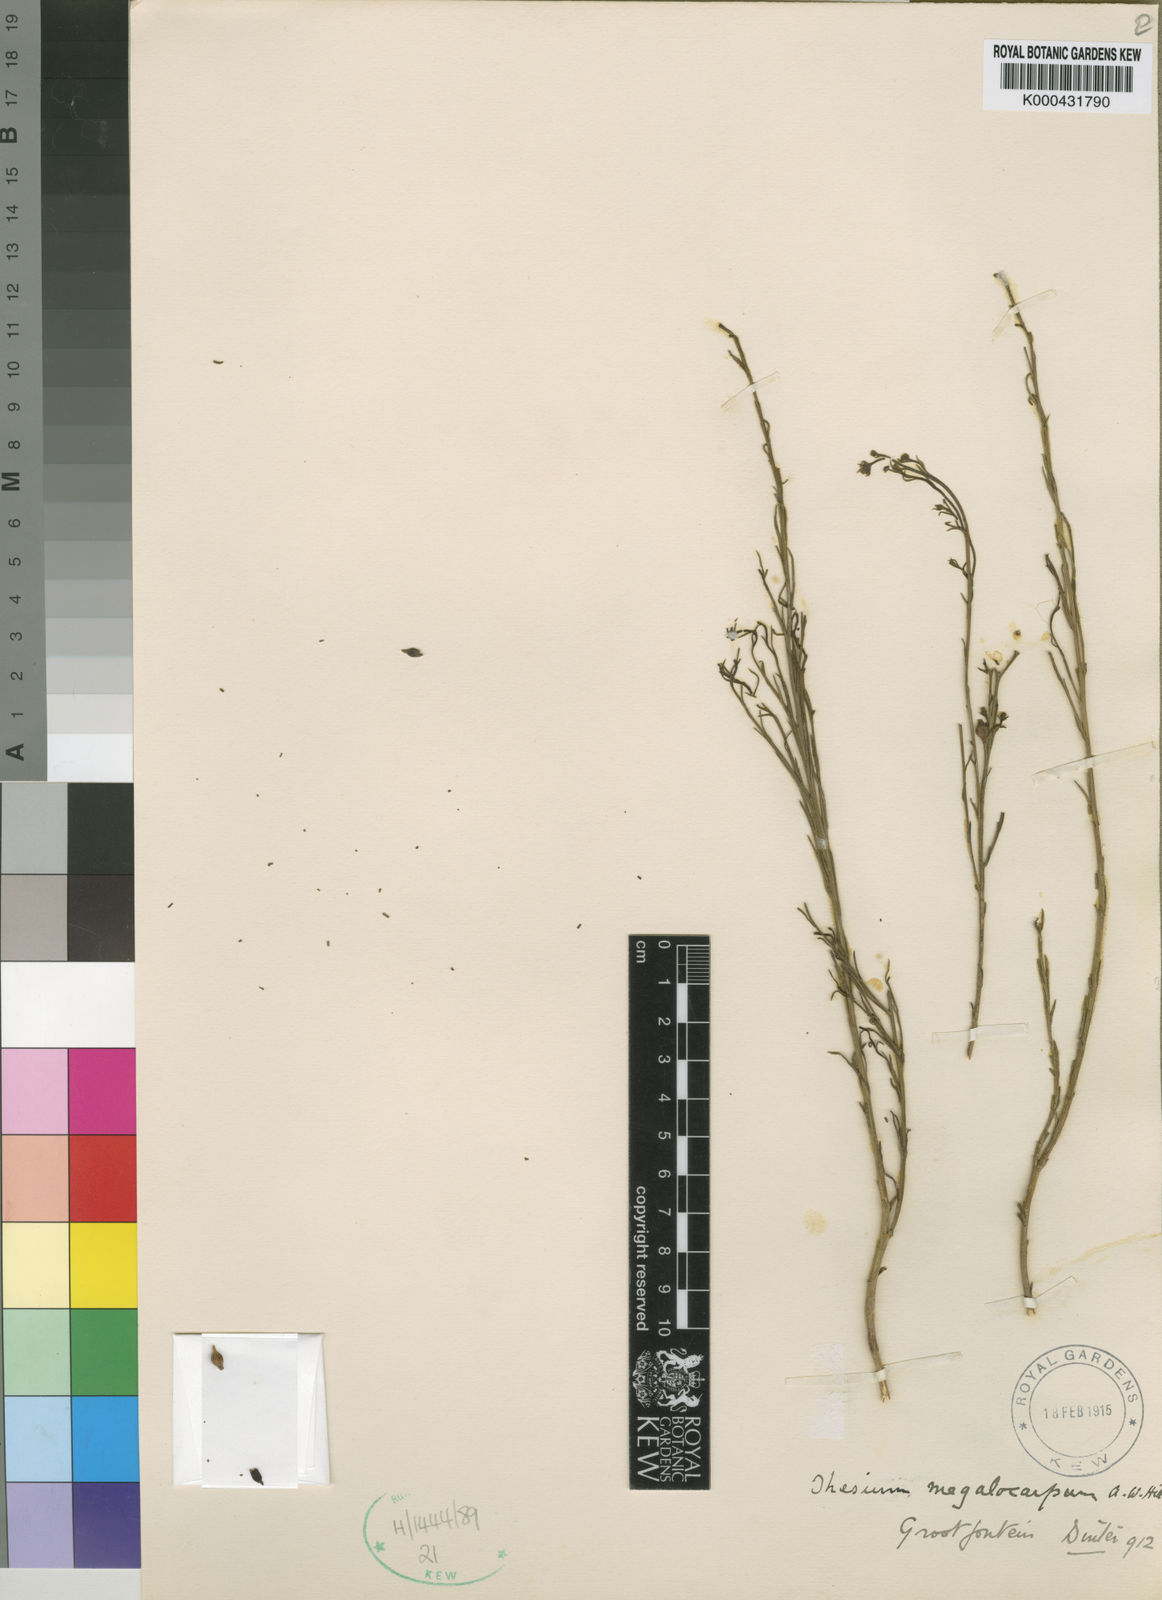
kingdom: Plantae
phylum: Tracheophyta
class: Magnoliopsida
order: Santalales
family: Thesiaceae
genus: Thesium
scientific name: Thesium megalocarpum
